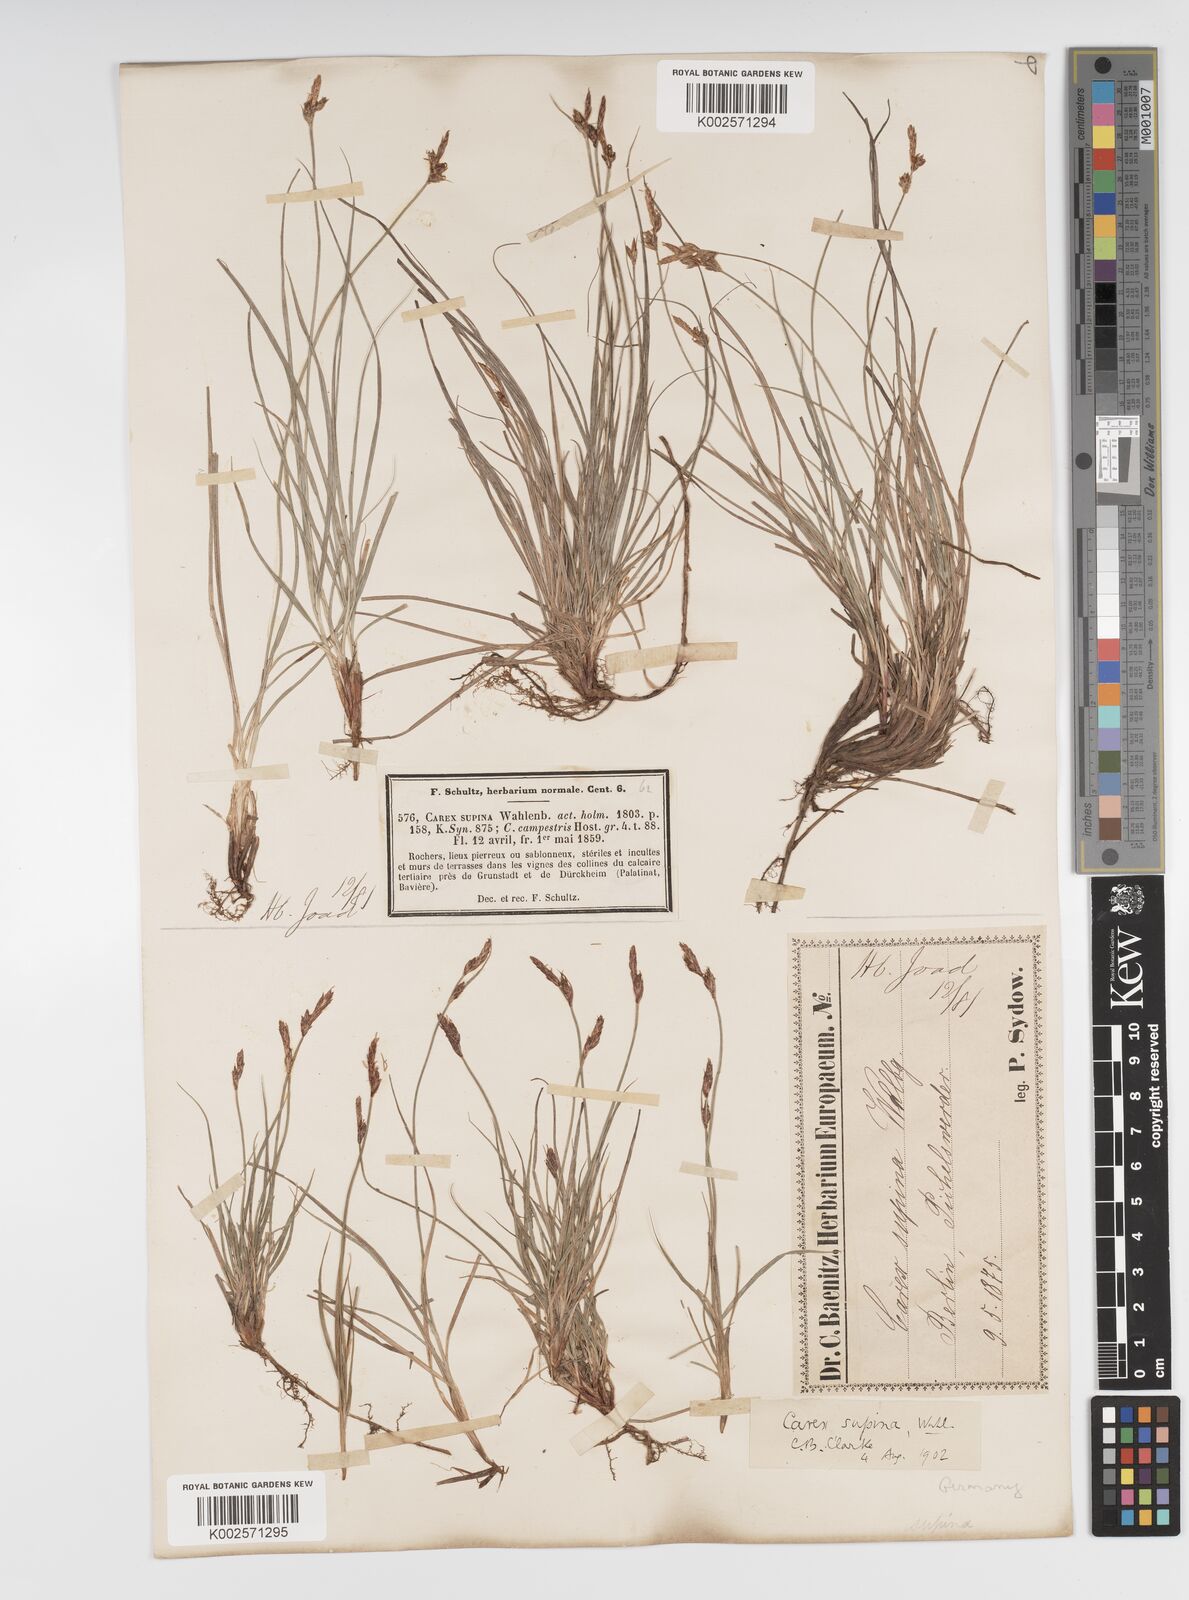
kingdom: Plantae
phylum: Tracheophyta
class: Liliopsida
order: Poales
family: Cyperaceae
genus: Carex
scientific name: Carex supina
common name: Lying-back sedge
